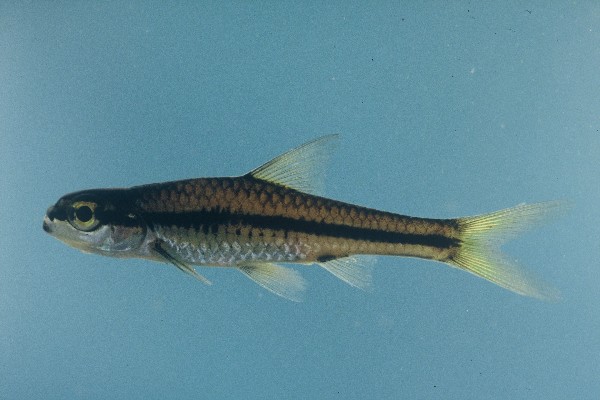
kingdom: Animalia
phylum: Chordata
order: Cypriniformes
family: Cyprinidae
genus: Enteromius
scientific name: Enteromius barnardi
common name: Blackback barb
